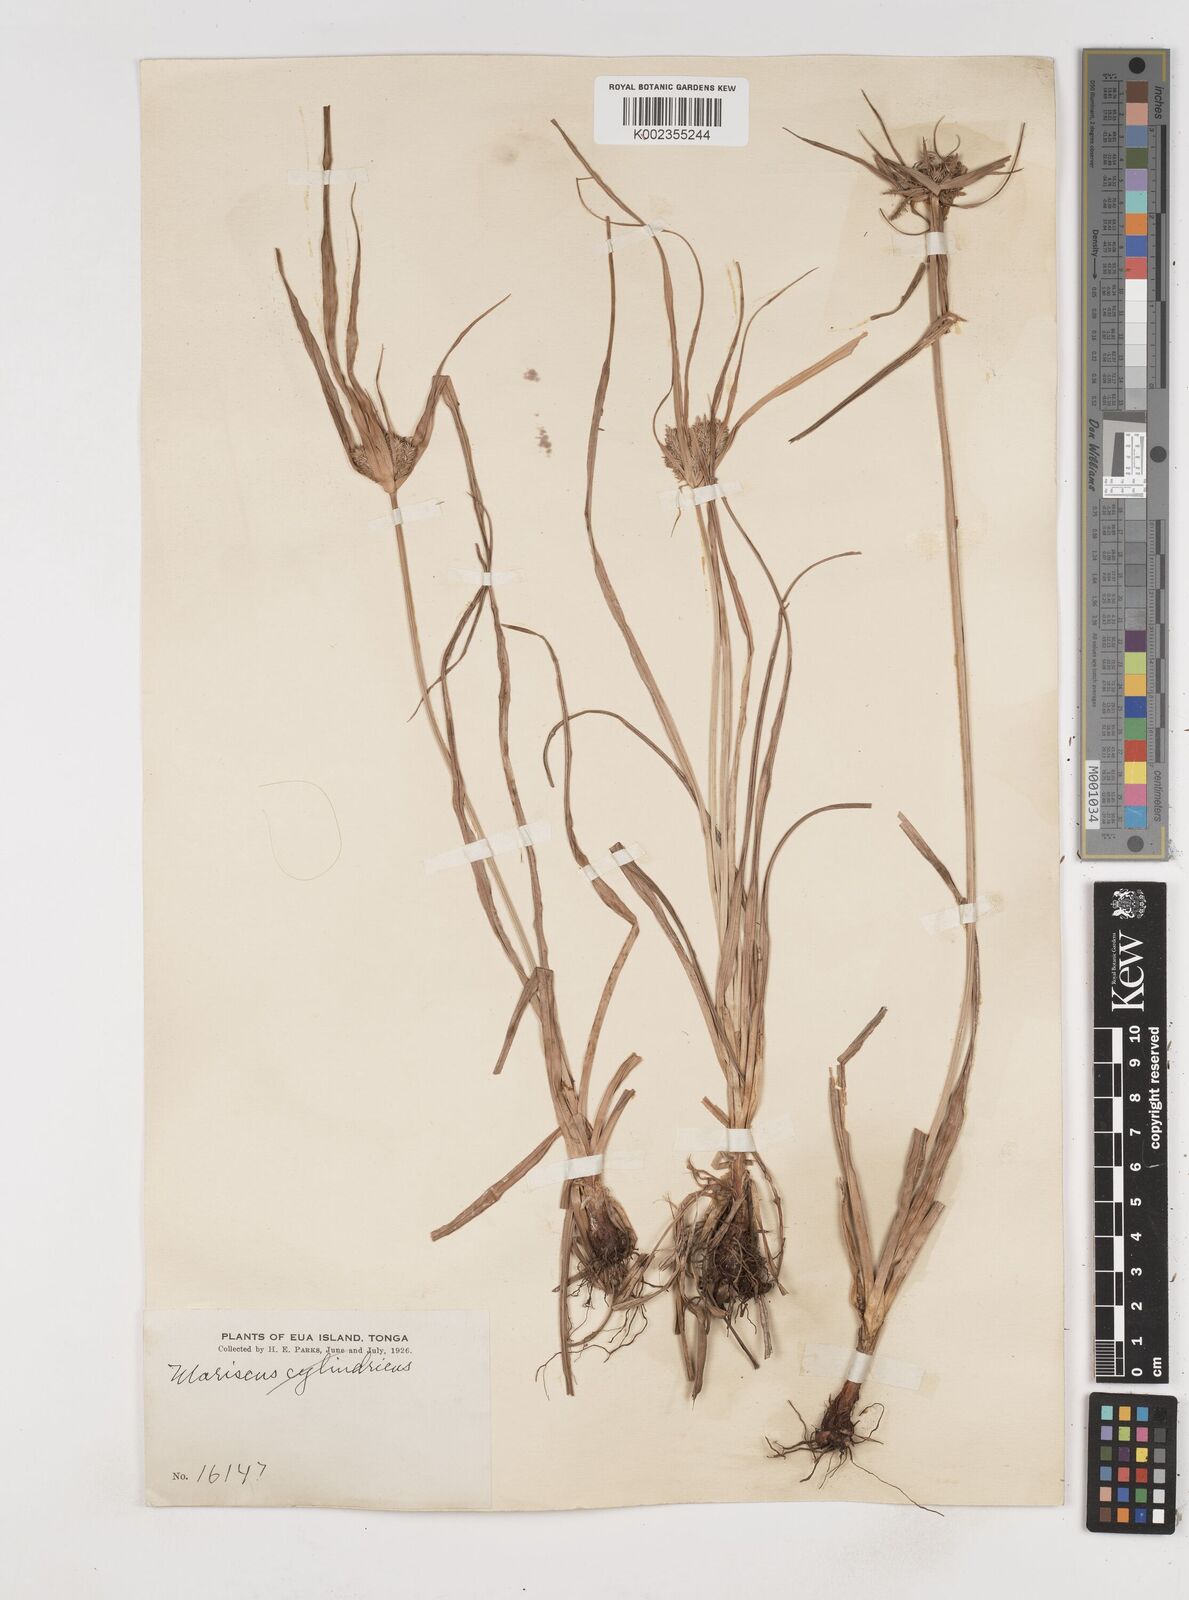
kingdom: Plantae
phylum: Tracheophyta
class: Liliopsida
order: Poales
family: Cyperaceae
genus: Cyperus
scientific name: Cyperus
